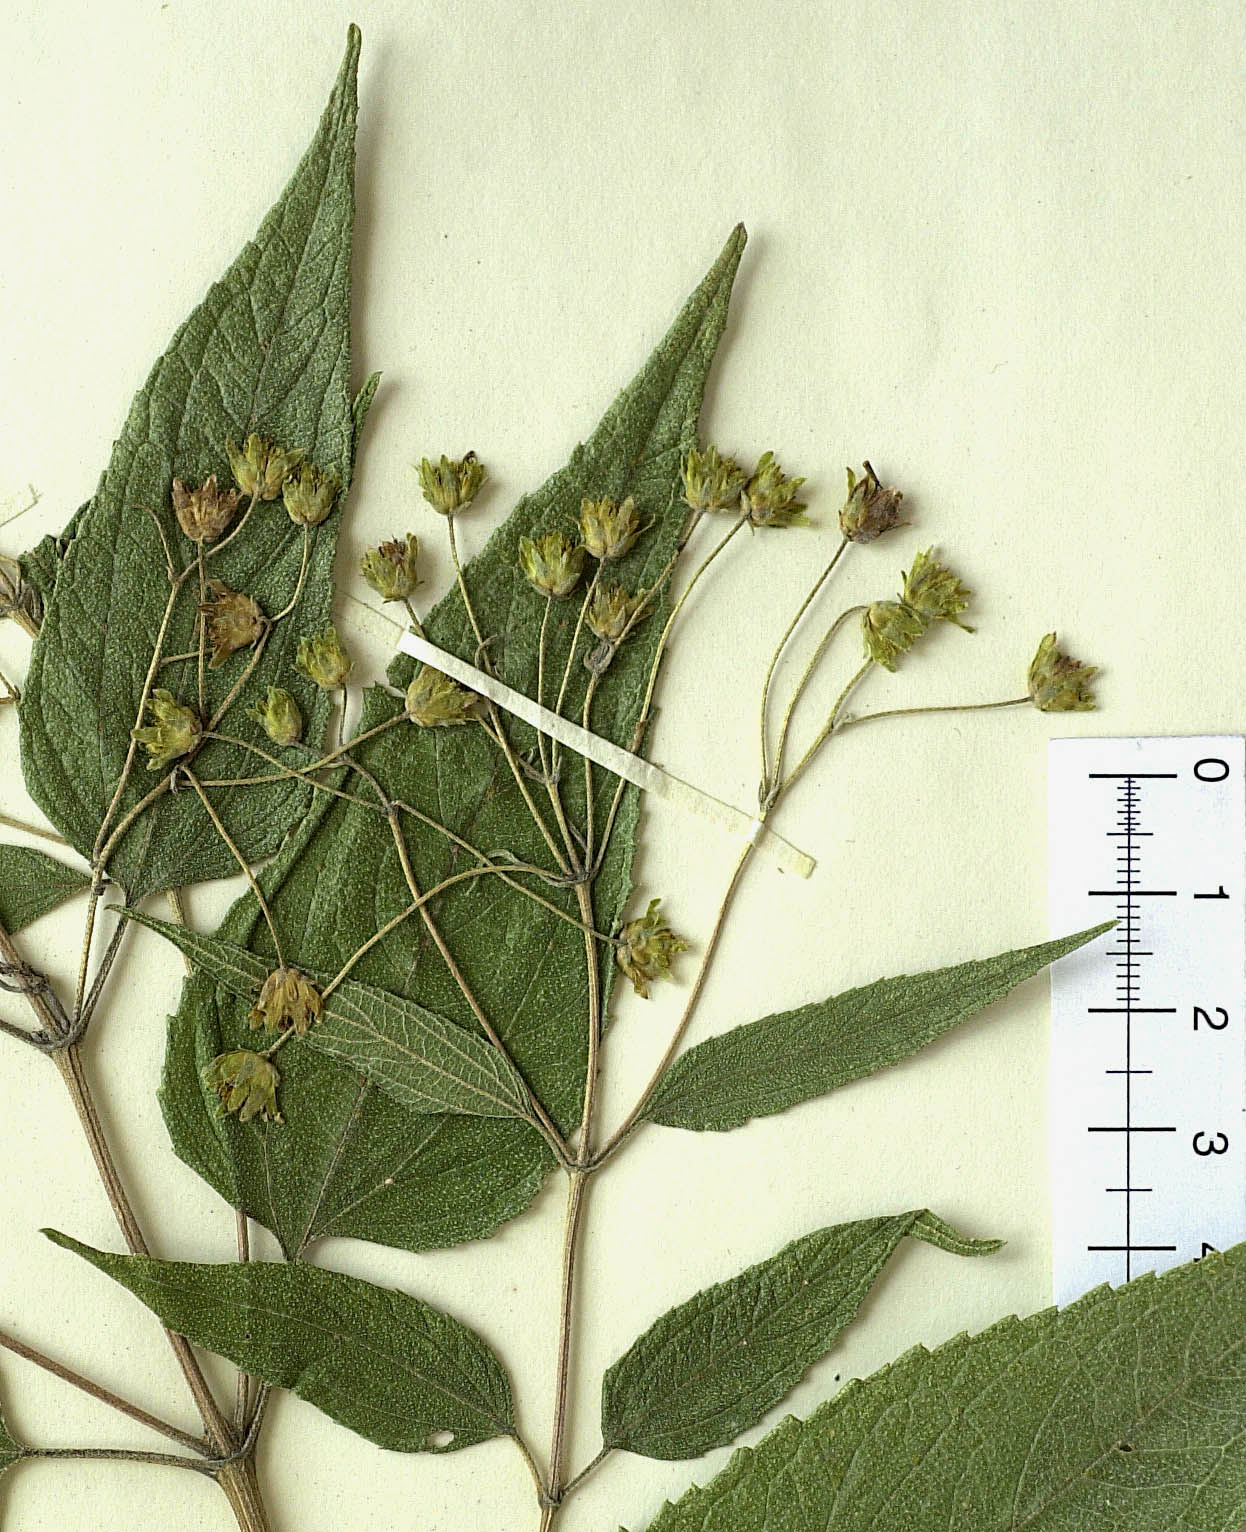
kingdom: Plantae
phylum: Tracheophyta
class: Magnoliopsida
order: Asterales
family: Asteraceae
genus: Perymenium
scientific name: Perymenium pringlei
